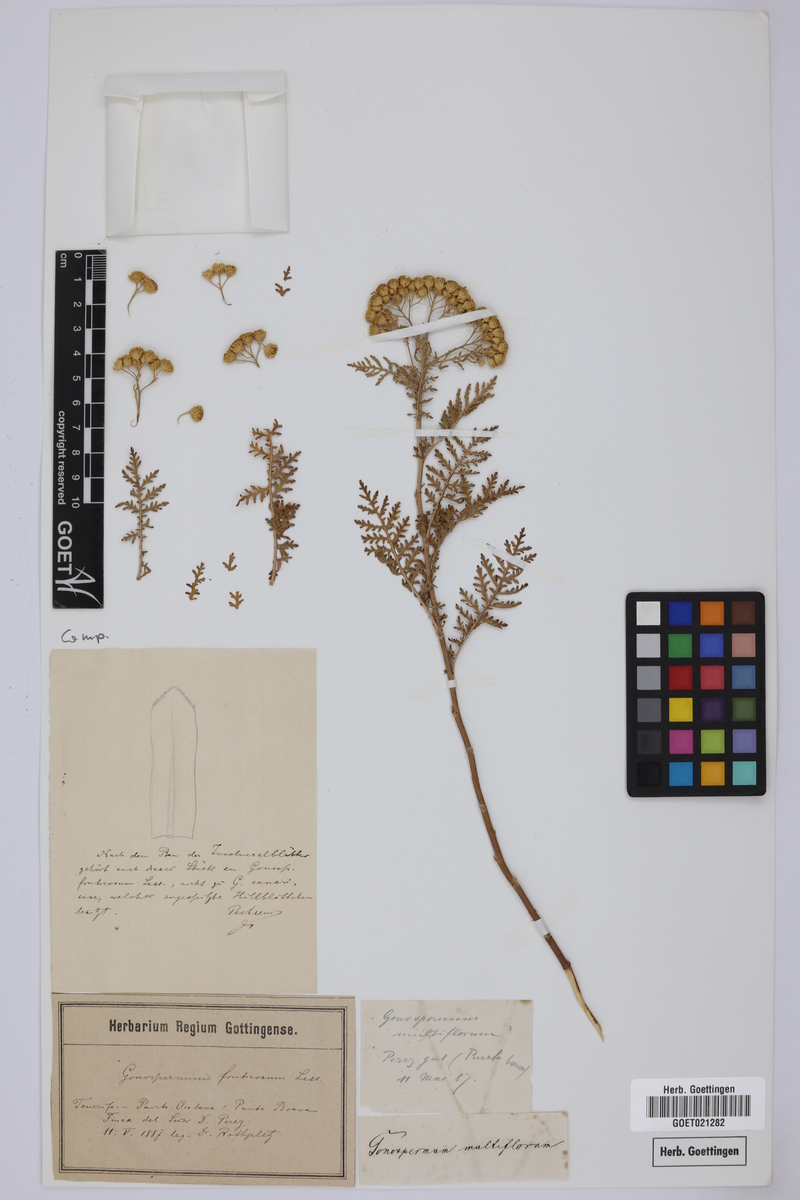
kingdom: Plantae
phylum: Tracheophyta
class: Magnoliopsida
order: Asterales
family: Asteraceae
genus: Gonospermum
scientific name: Gonospermum fruticosum
